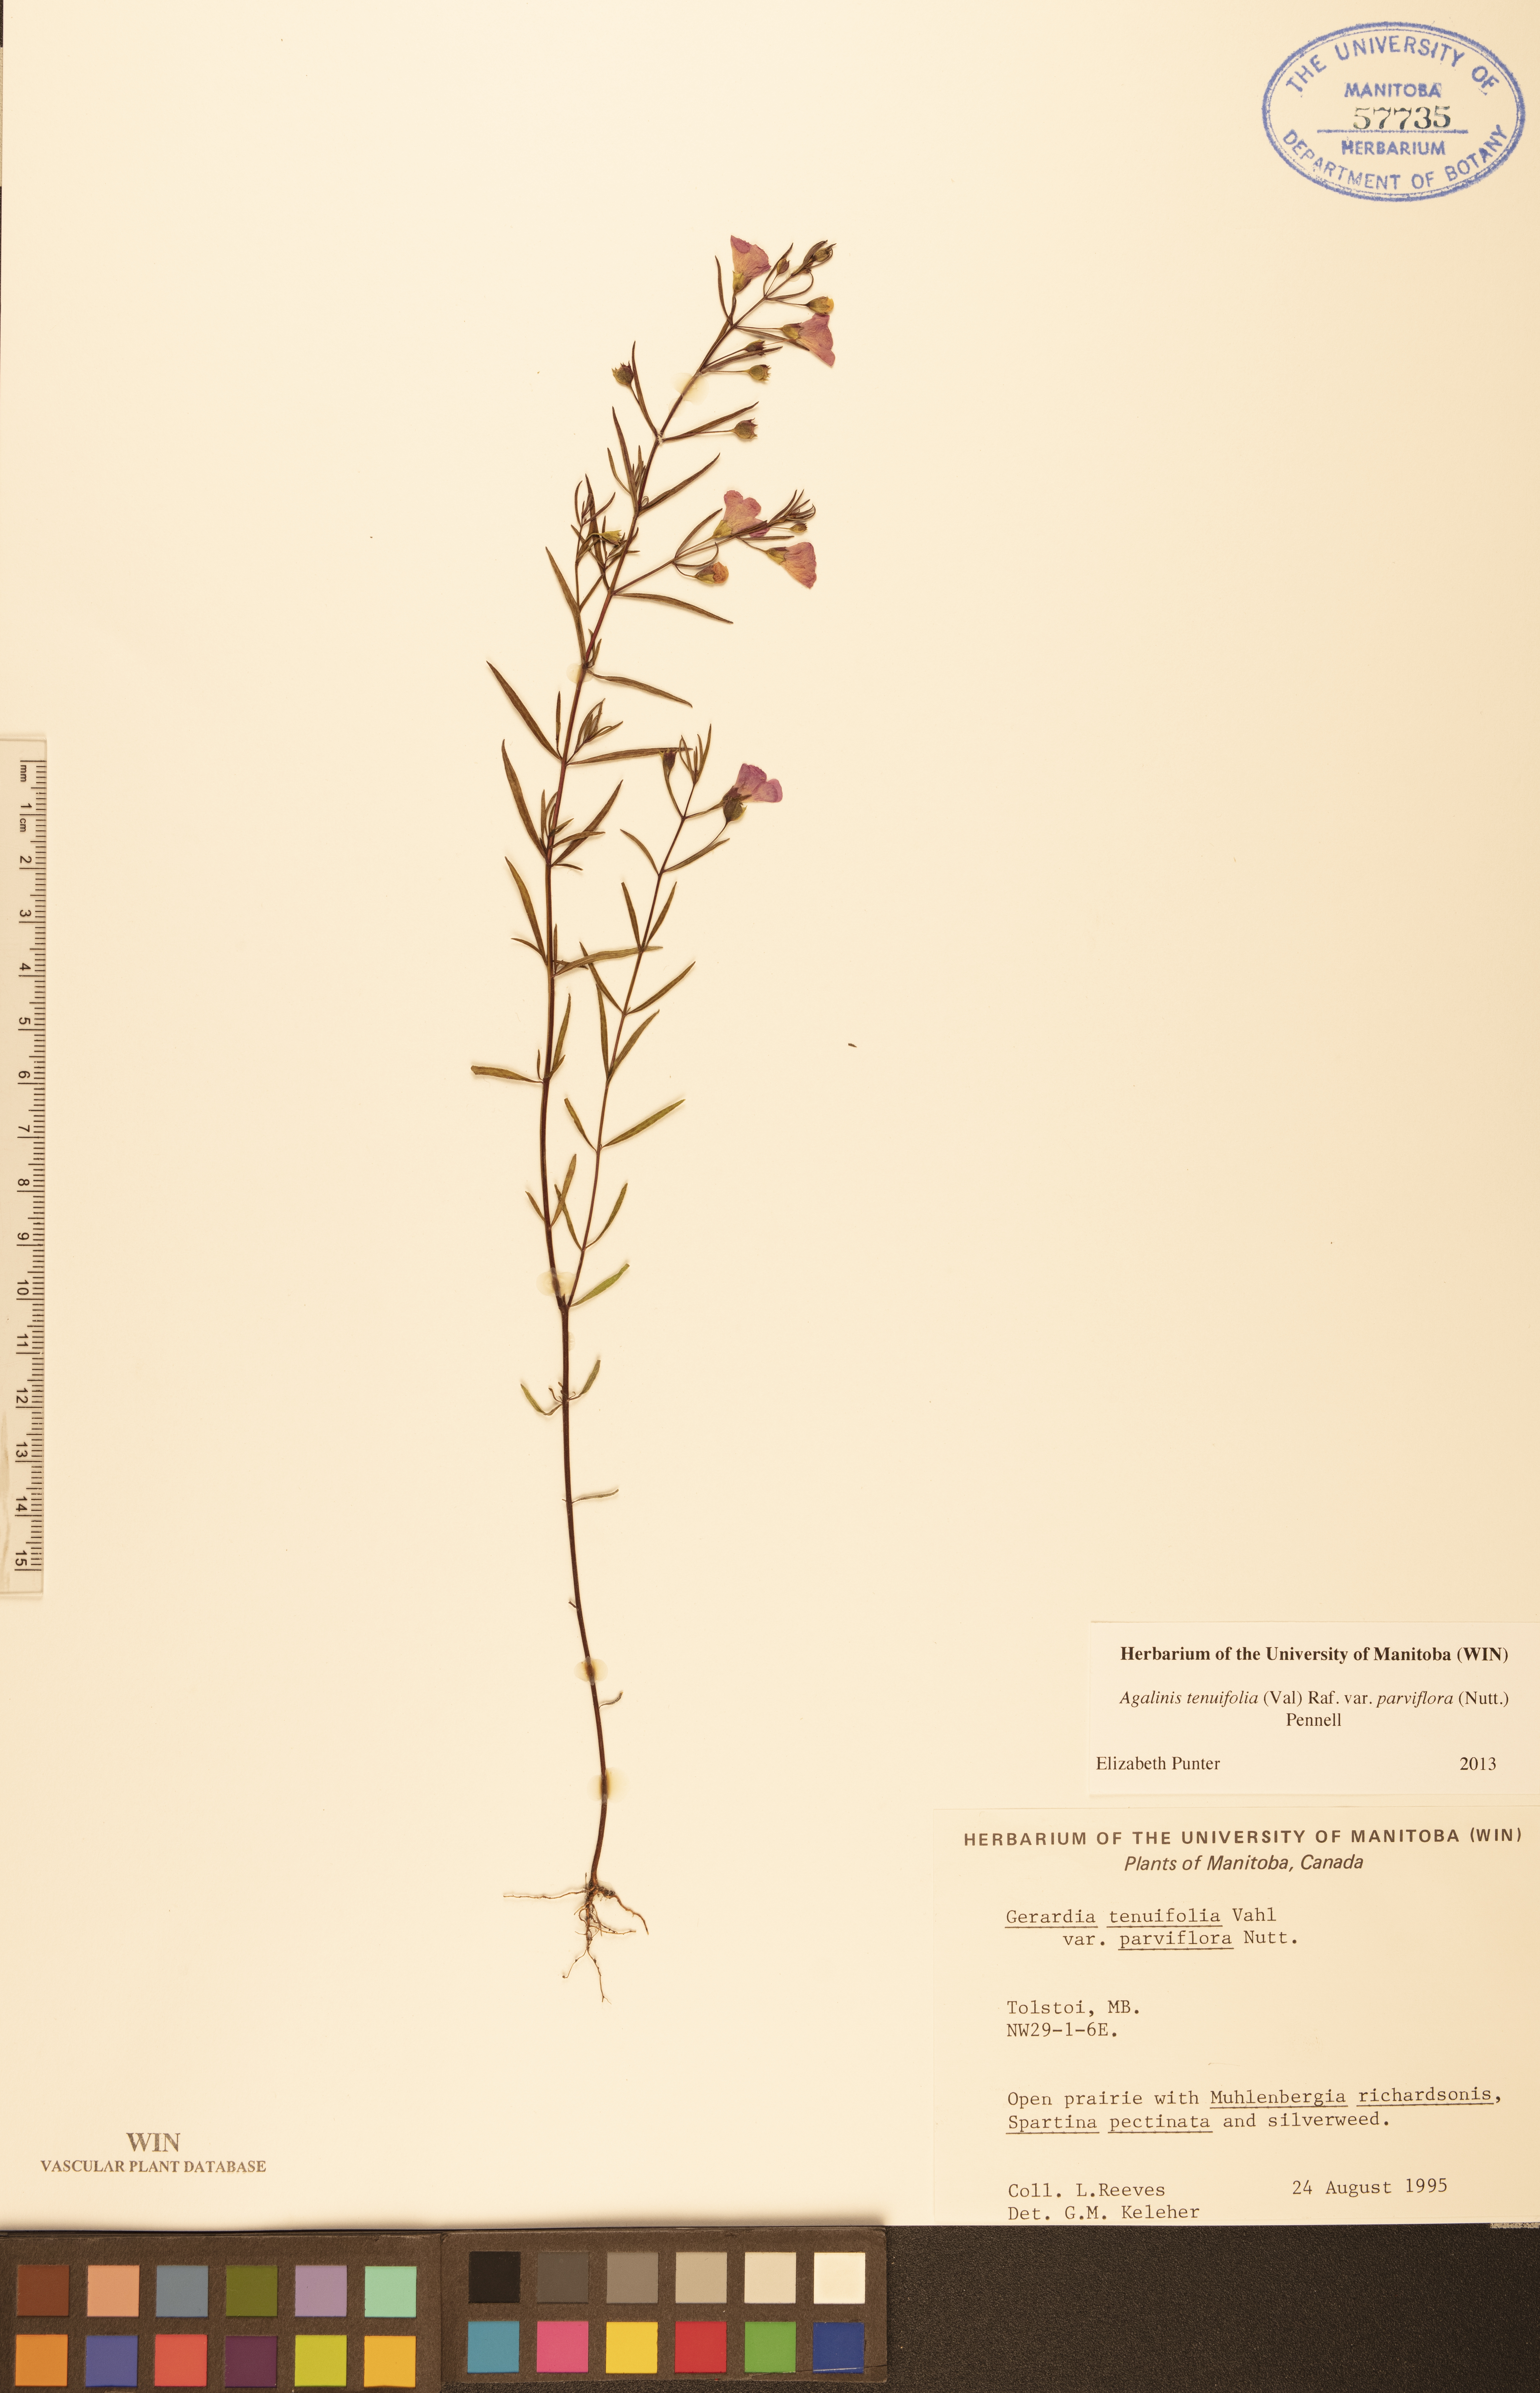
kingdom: Plantae
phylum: Tracheophyta
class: Magnoliopsida
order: Lamiales
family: Orobanchaceae
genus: Agalinis
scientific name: Agalinis tenuifolia
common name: Slender agalinis
